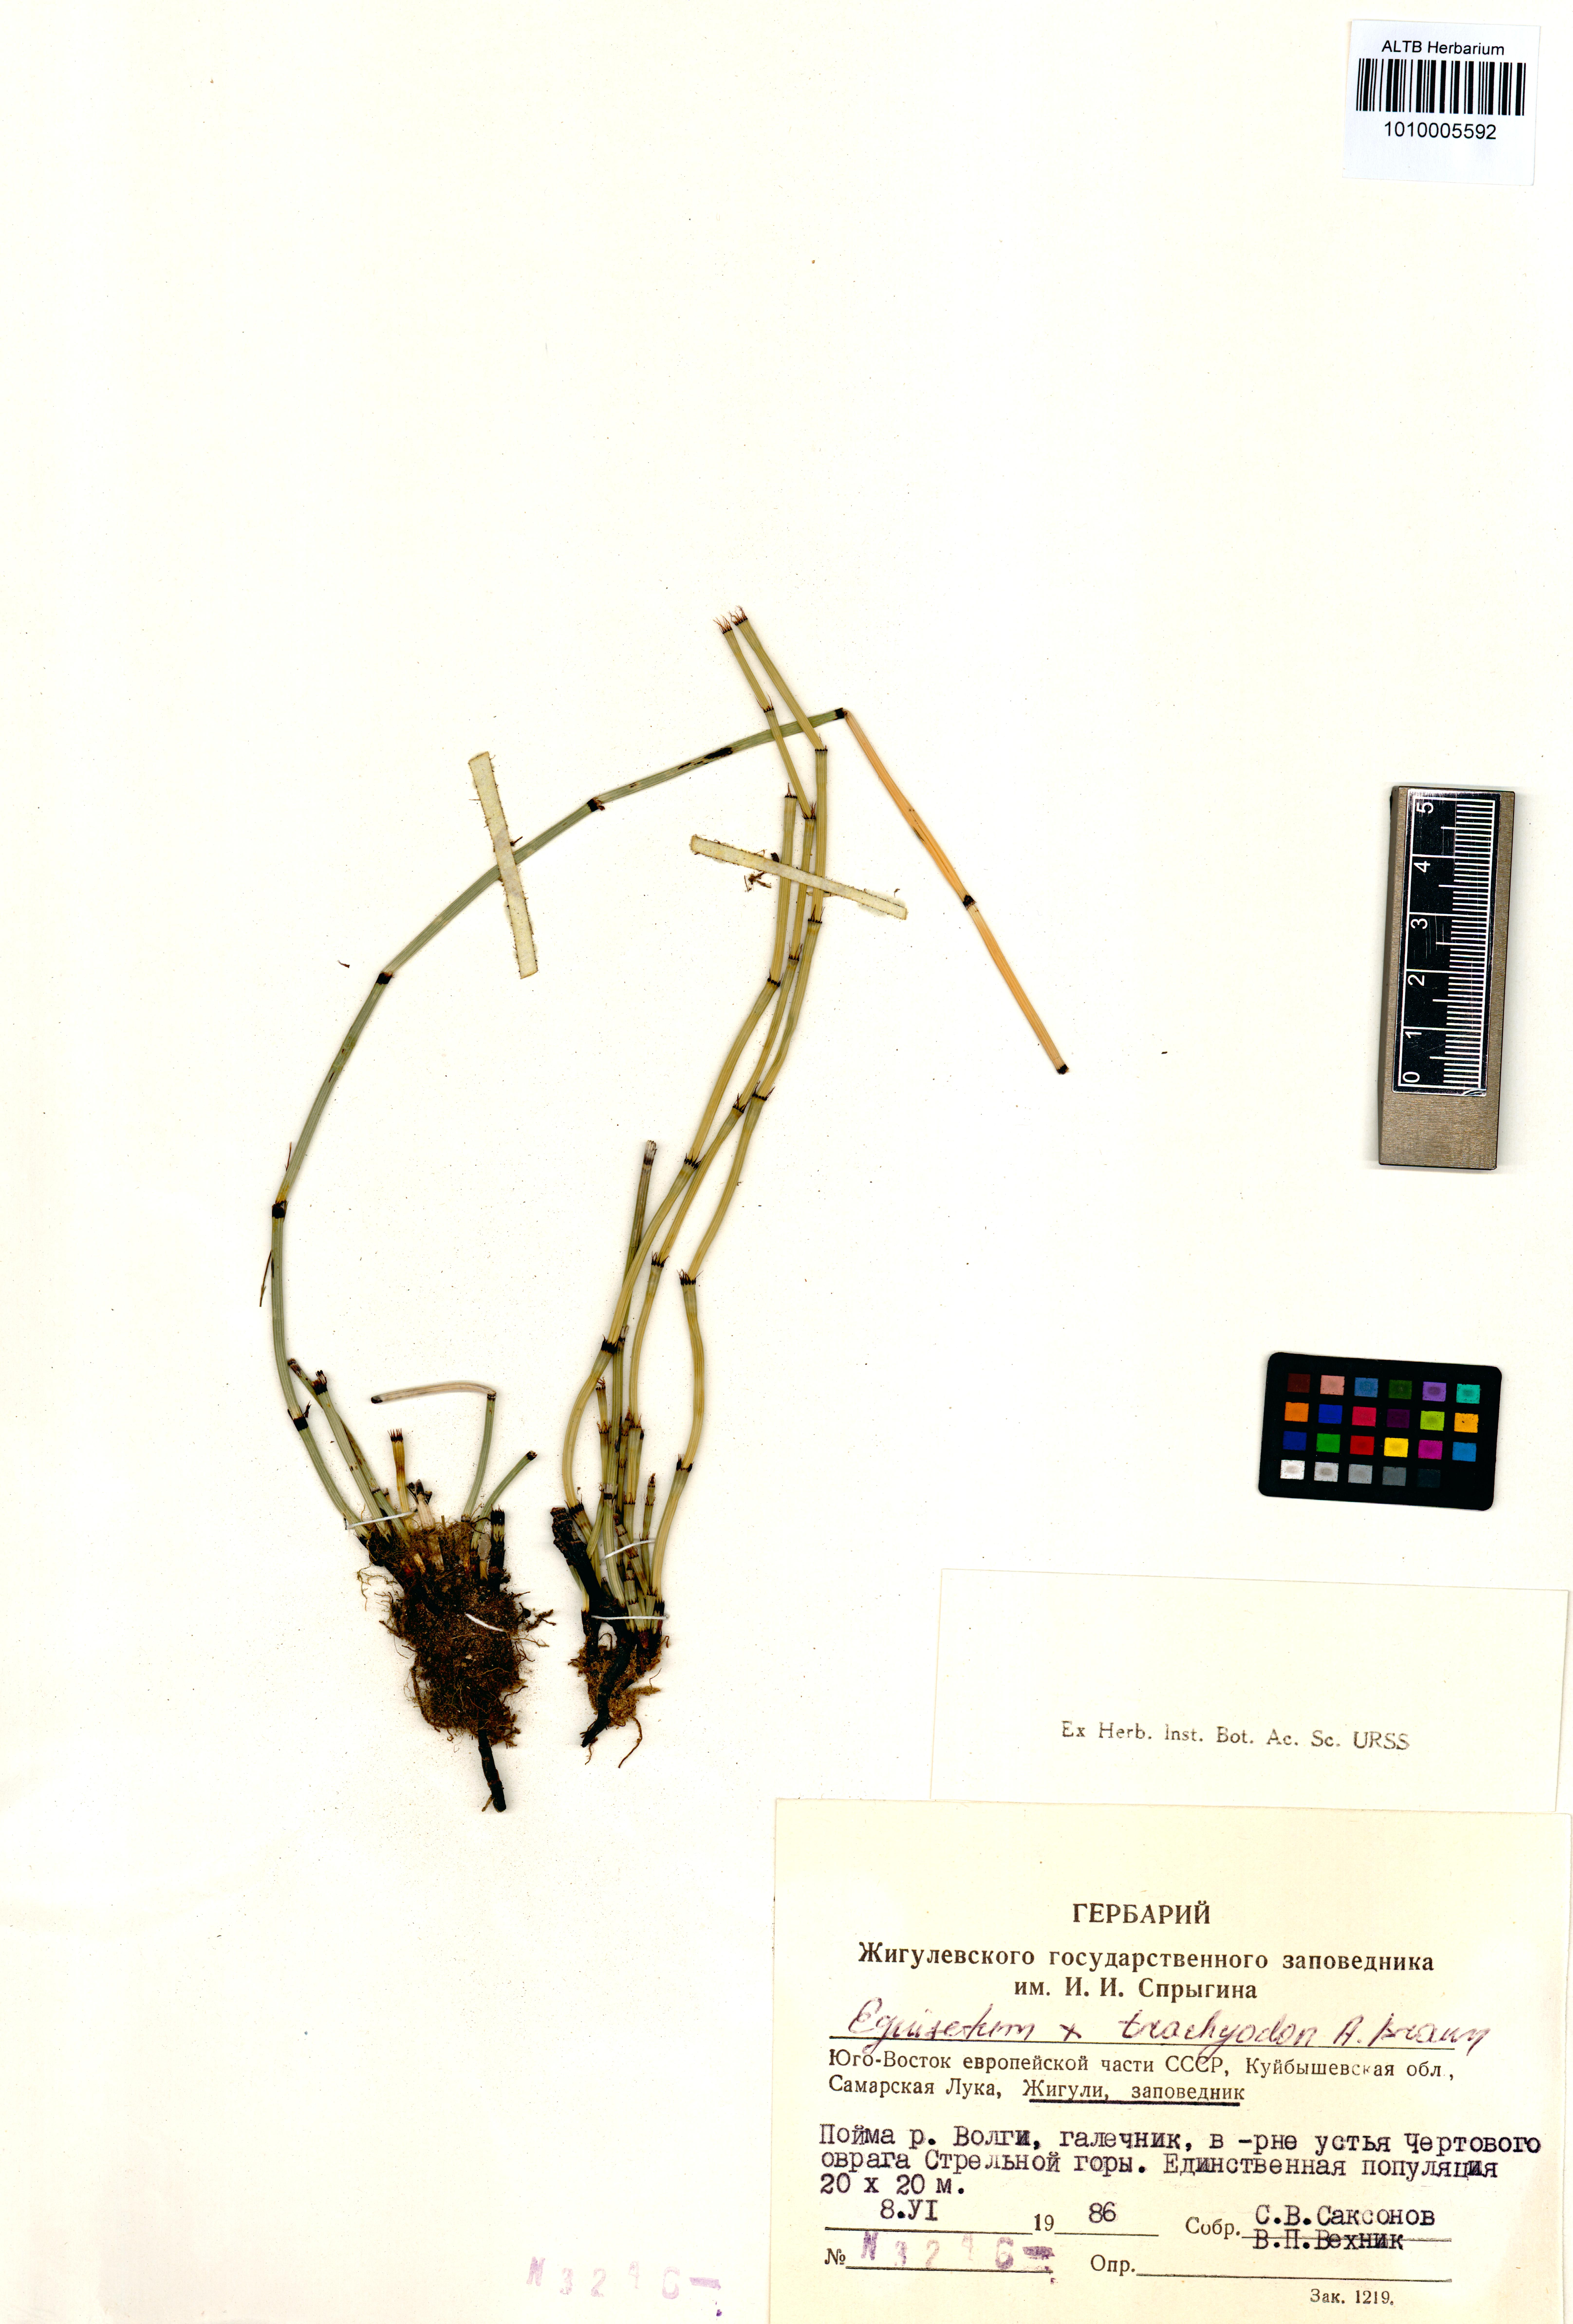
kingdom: Plantae
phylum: Tracheophyta
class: Polypodiopsida
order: Equisetales
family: Equisetaceae
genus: Equisetum
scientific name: Equisetum telmateia
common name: Great horsetail
